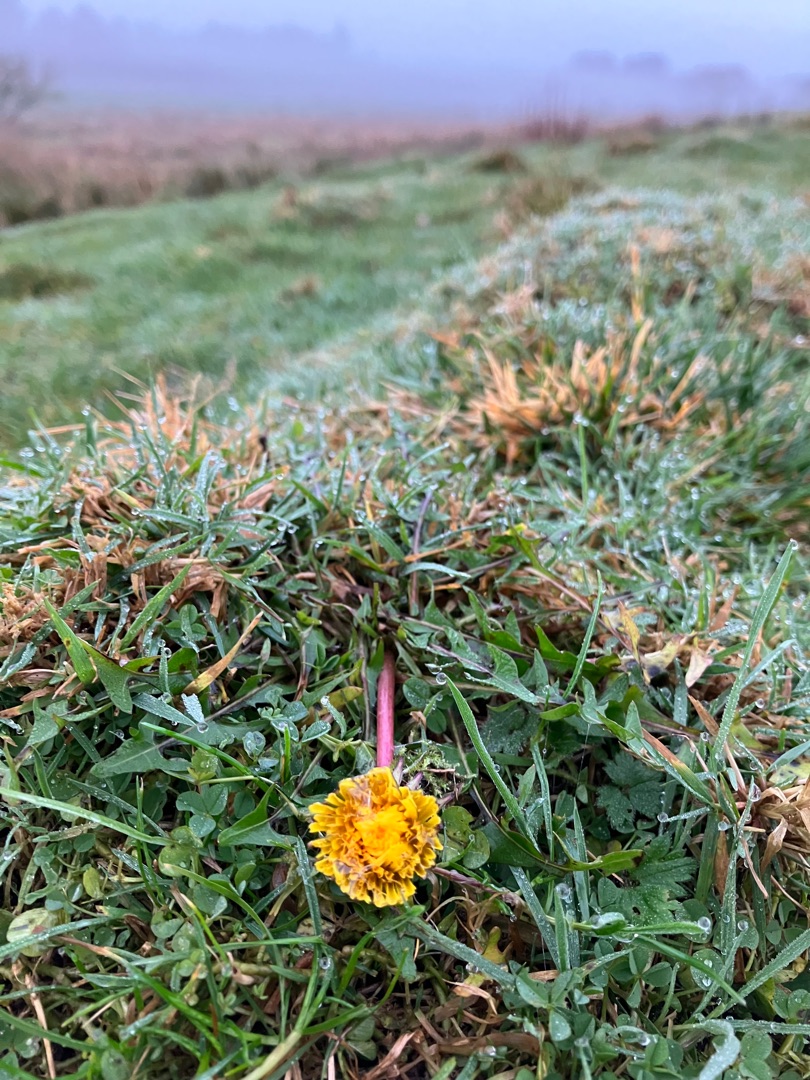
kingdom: Plantae
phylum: Tracheophyta
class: Magnoliopsida
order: Asterales
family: Asteraceae
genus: Taraxacum
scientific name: Taraxacum
